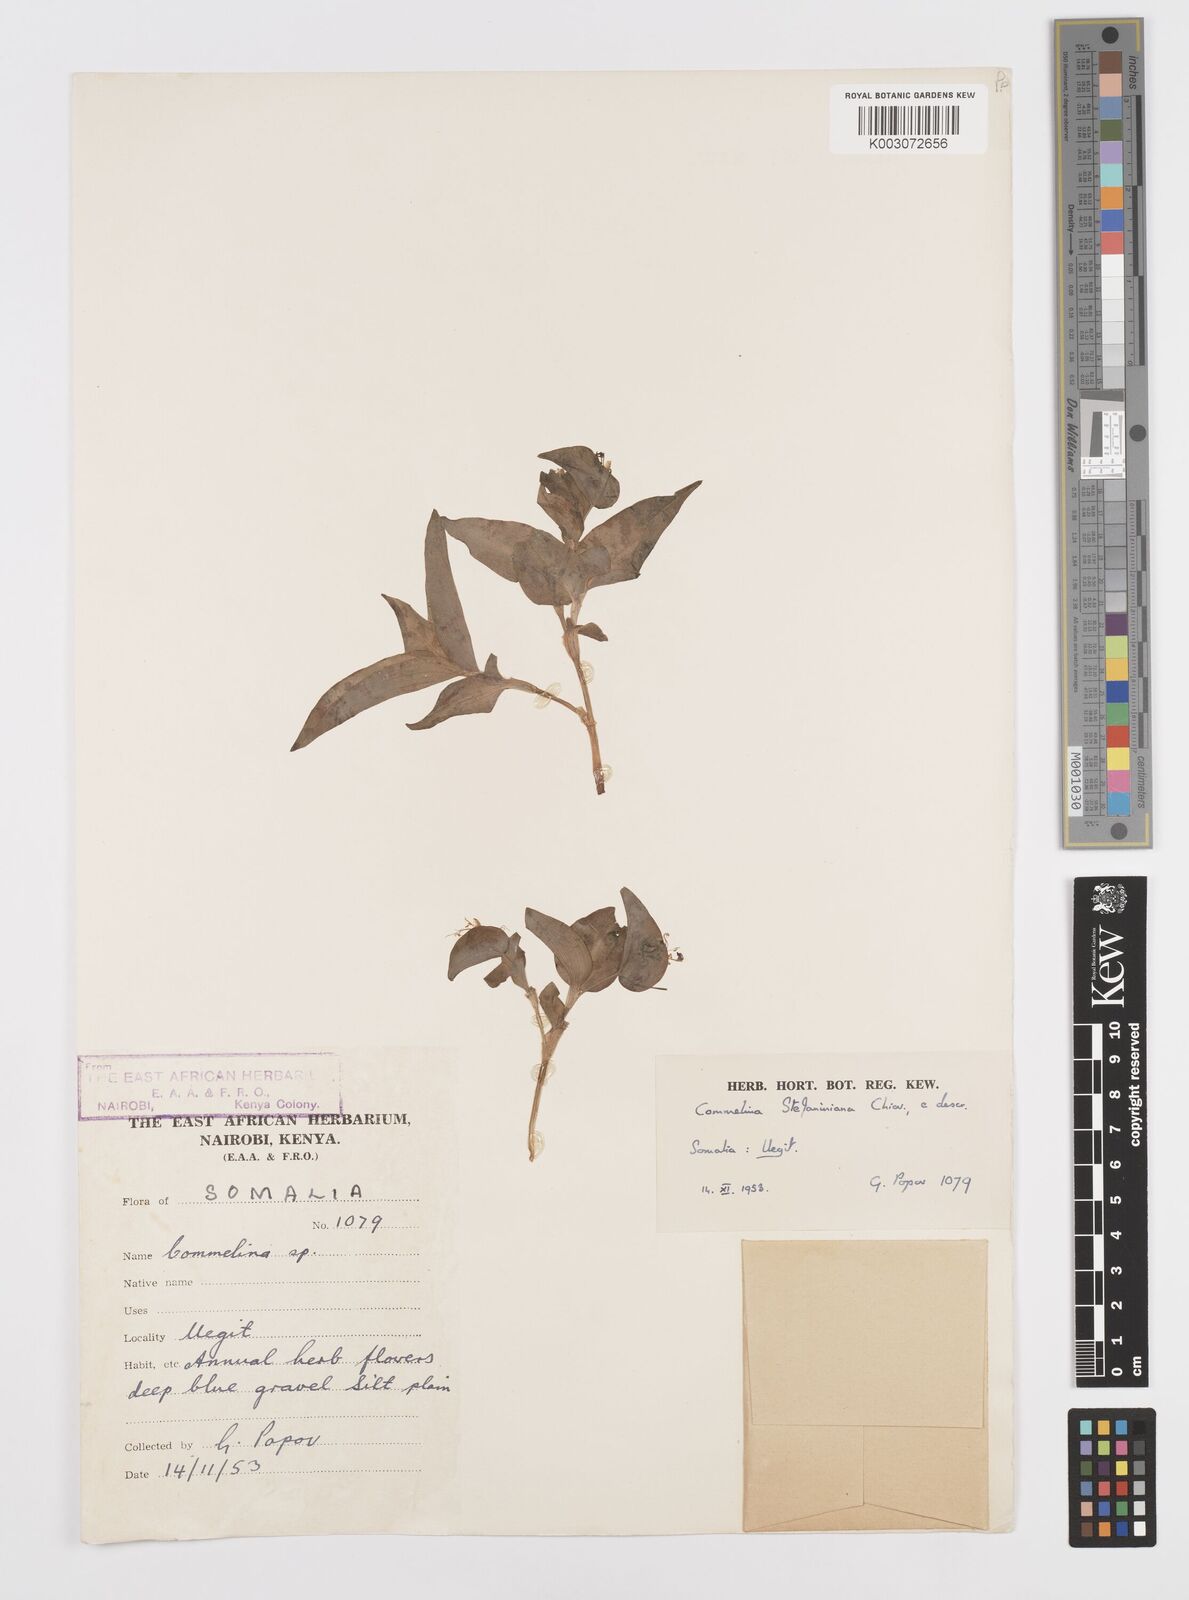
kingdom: Plantae
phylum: Tracheophyta
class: Liliopsida
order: Commelinales
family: Commelinaceae
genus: Commelina
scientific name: Commelina stefaniniana
